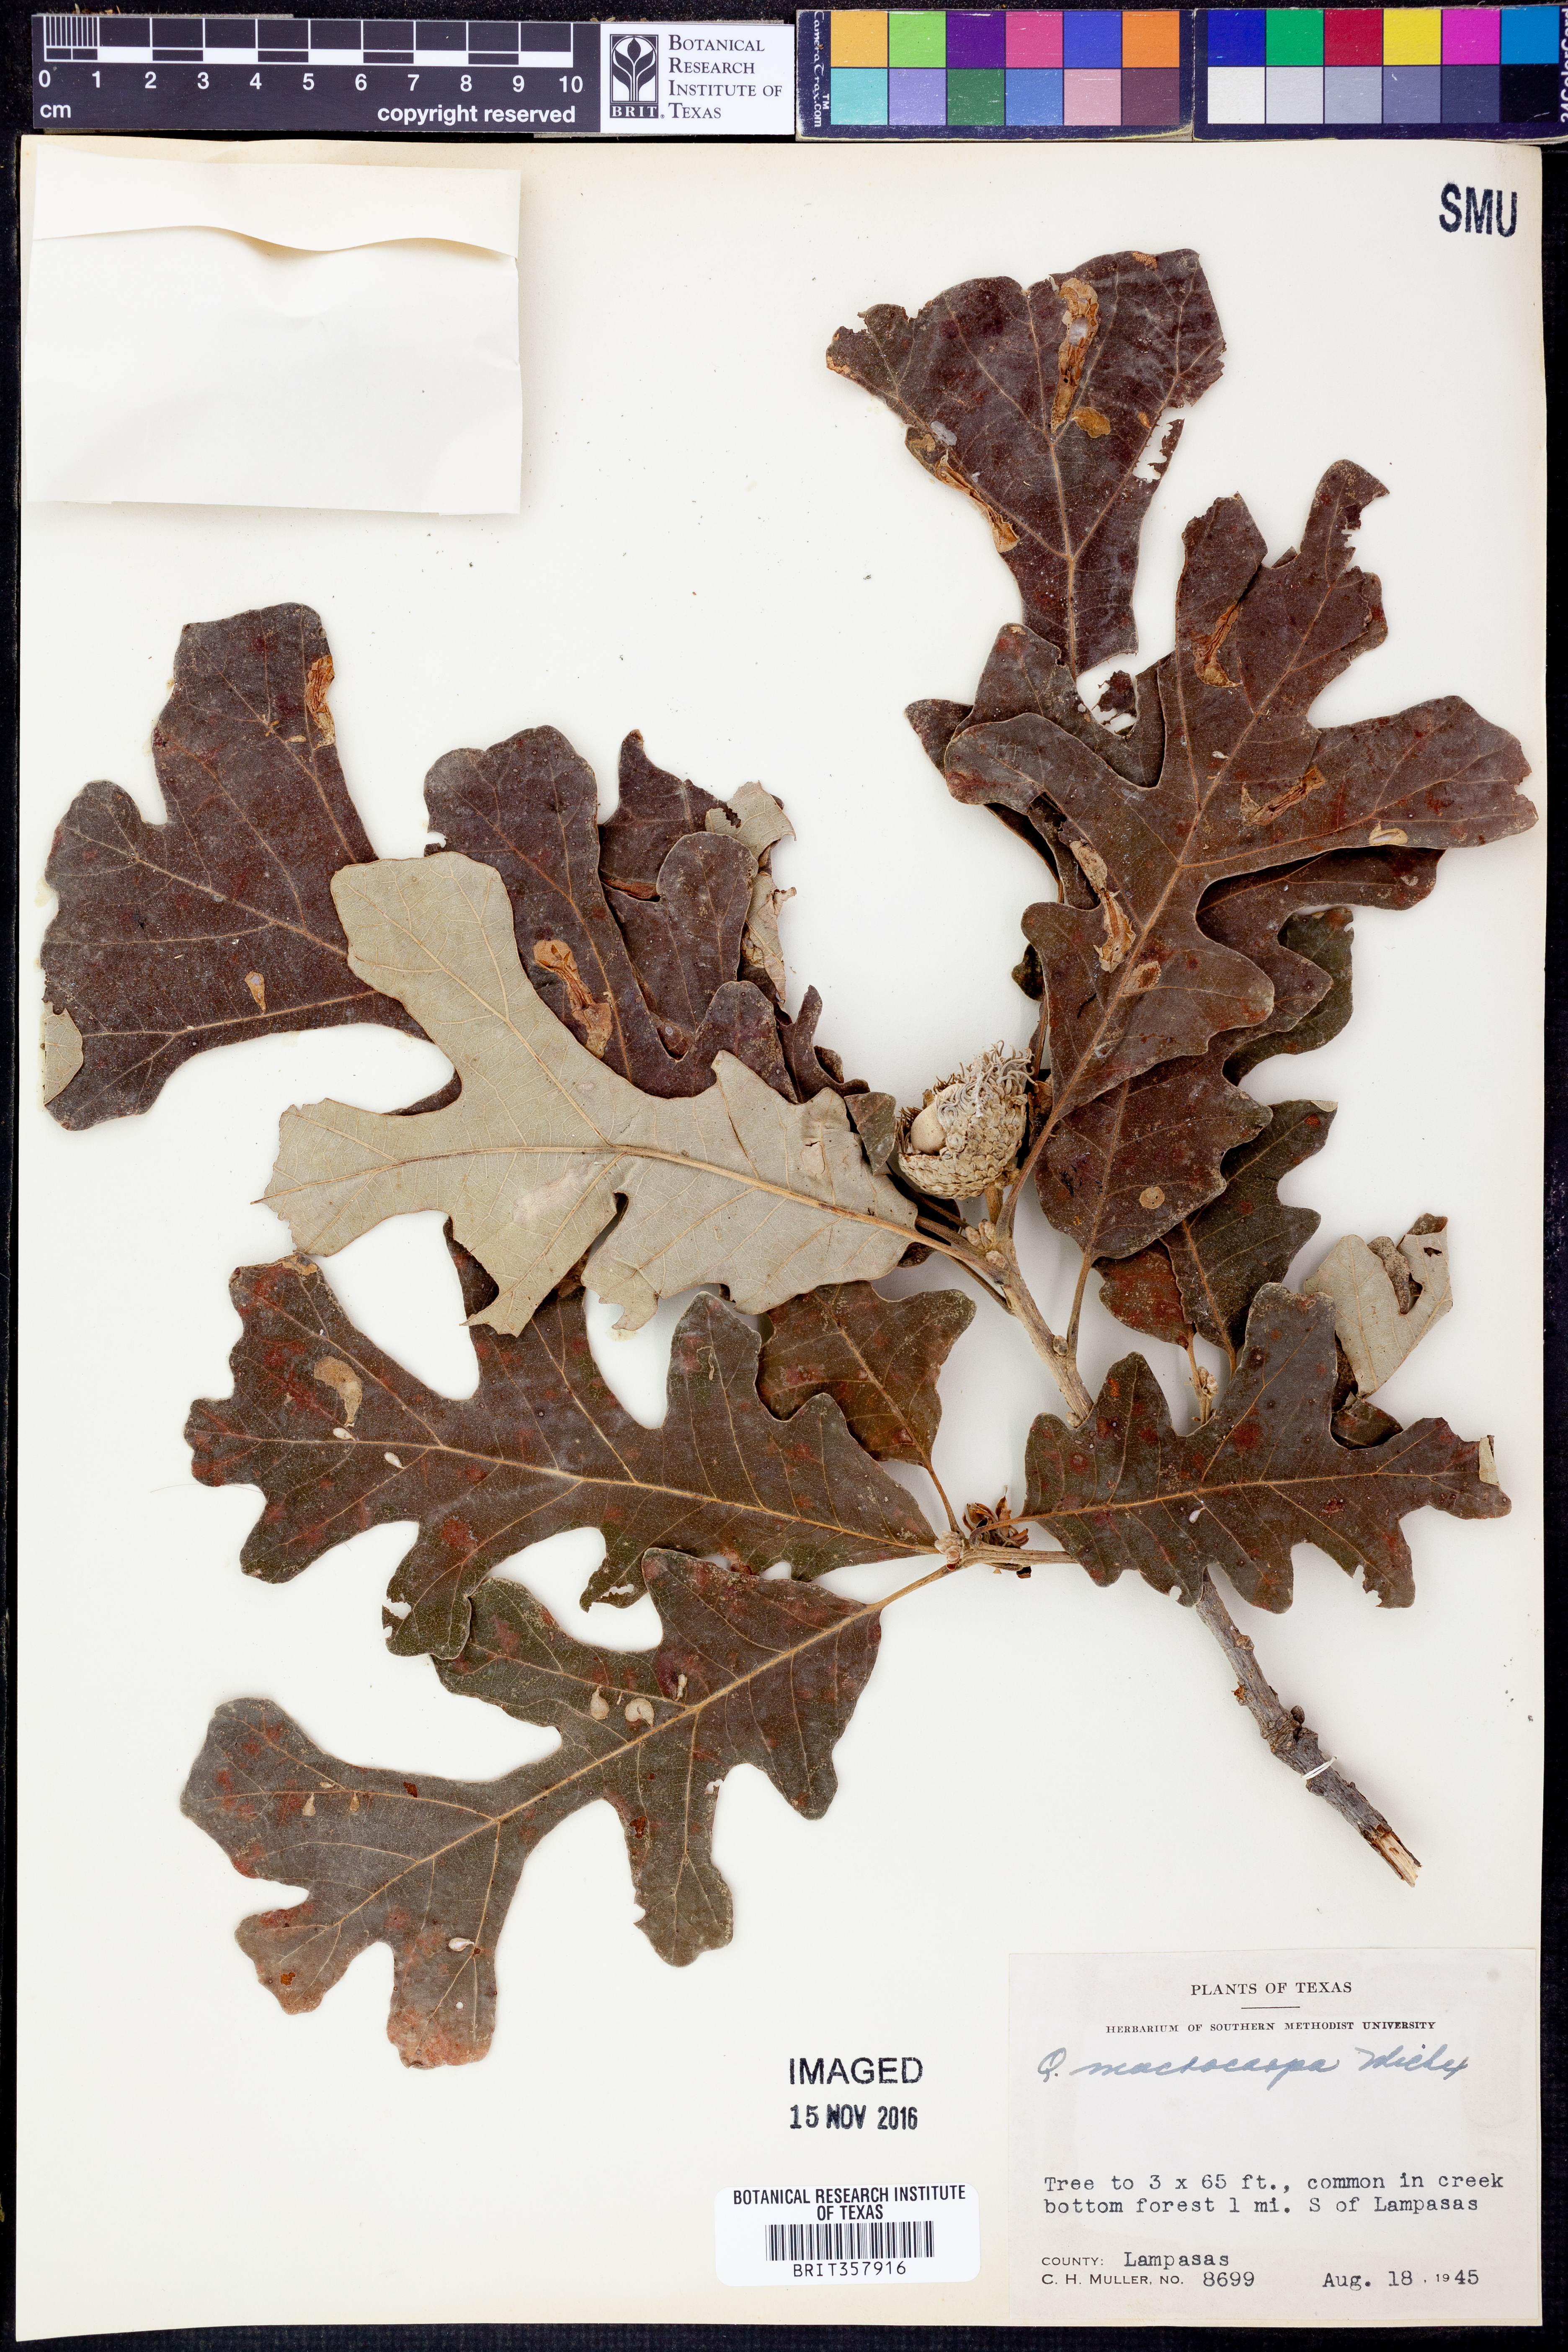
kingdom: Plantae
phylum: Tracheophyta
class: Magnoliopsida
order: Fagales
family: Fagaceae
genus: Quercus
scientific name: Quercus macrocarpa
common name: Bur oak
